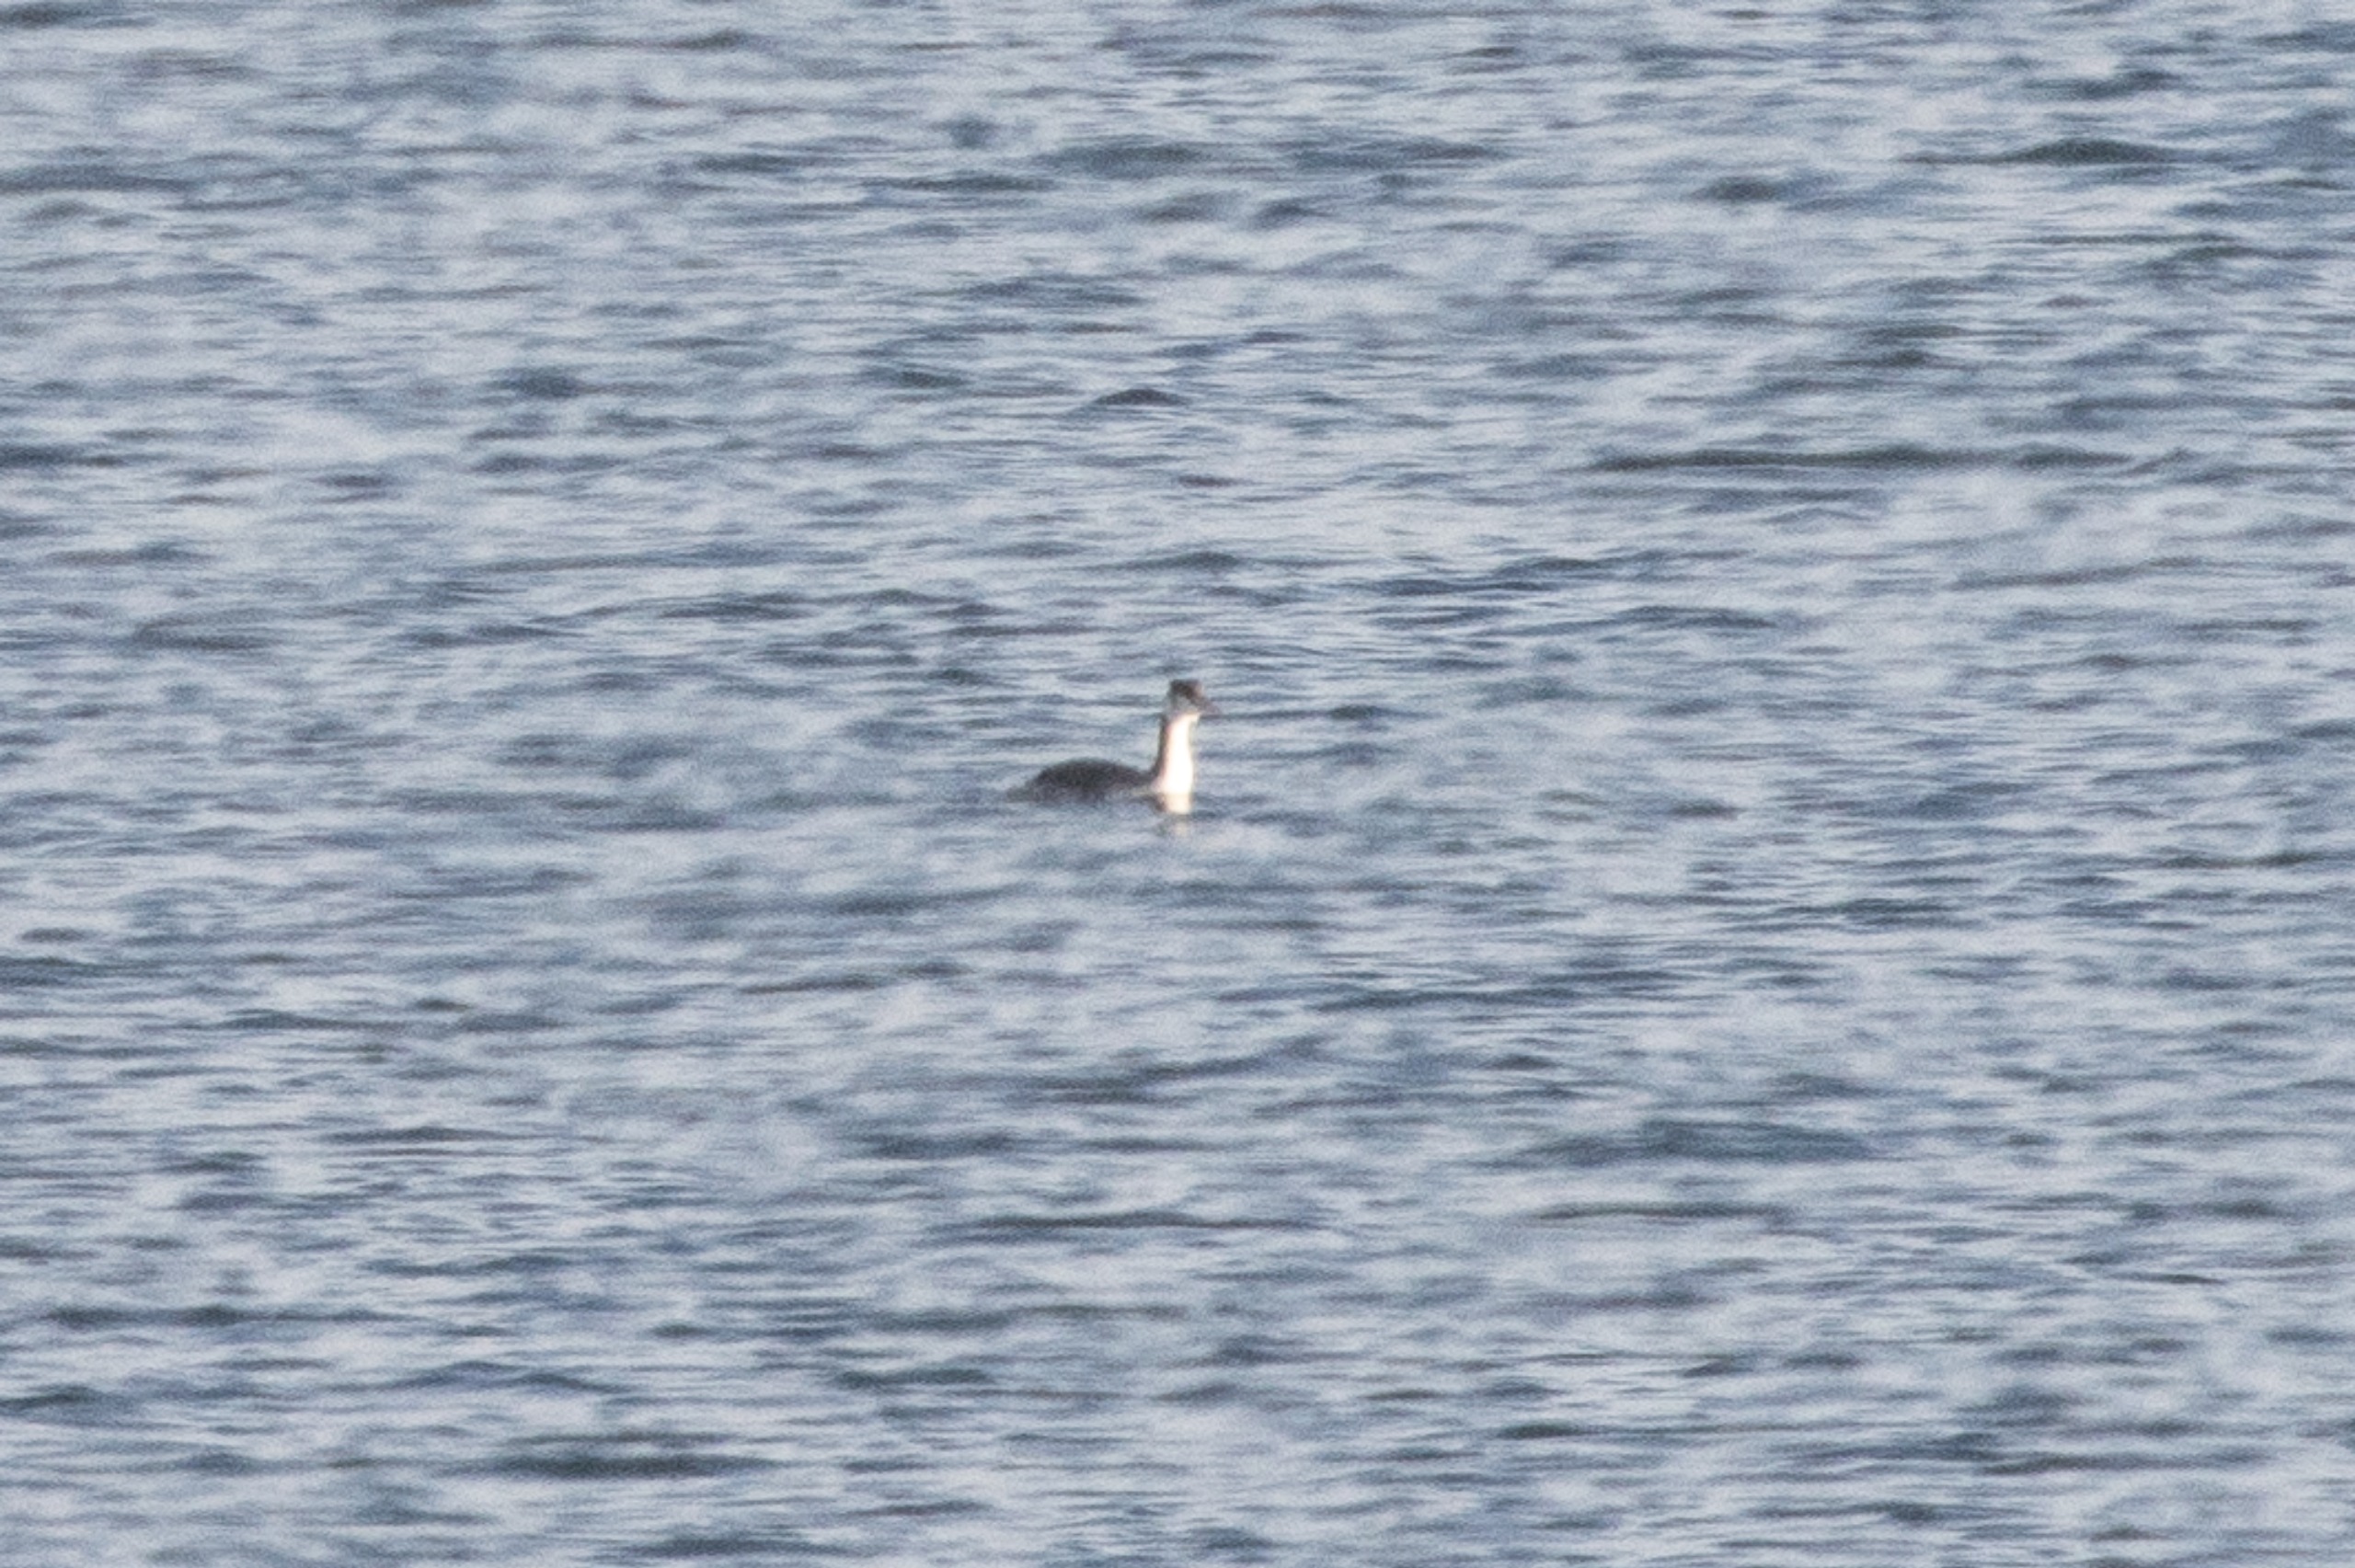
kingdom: Animalia
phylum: Chordata
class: Aves
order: Podicipediformes
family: Podicipedidae
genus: Podiceps
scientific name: Podiceps cristatus
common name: Toppet lappedykker
